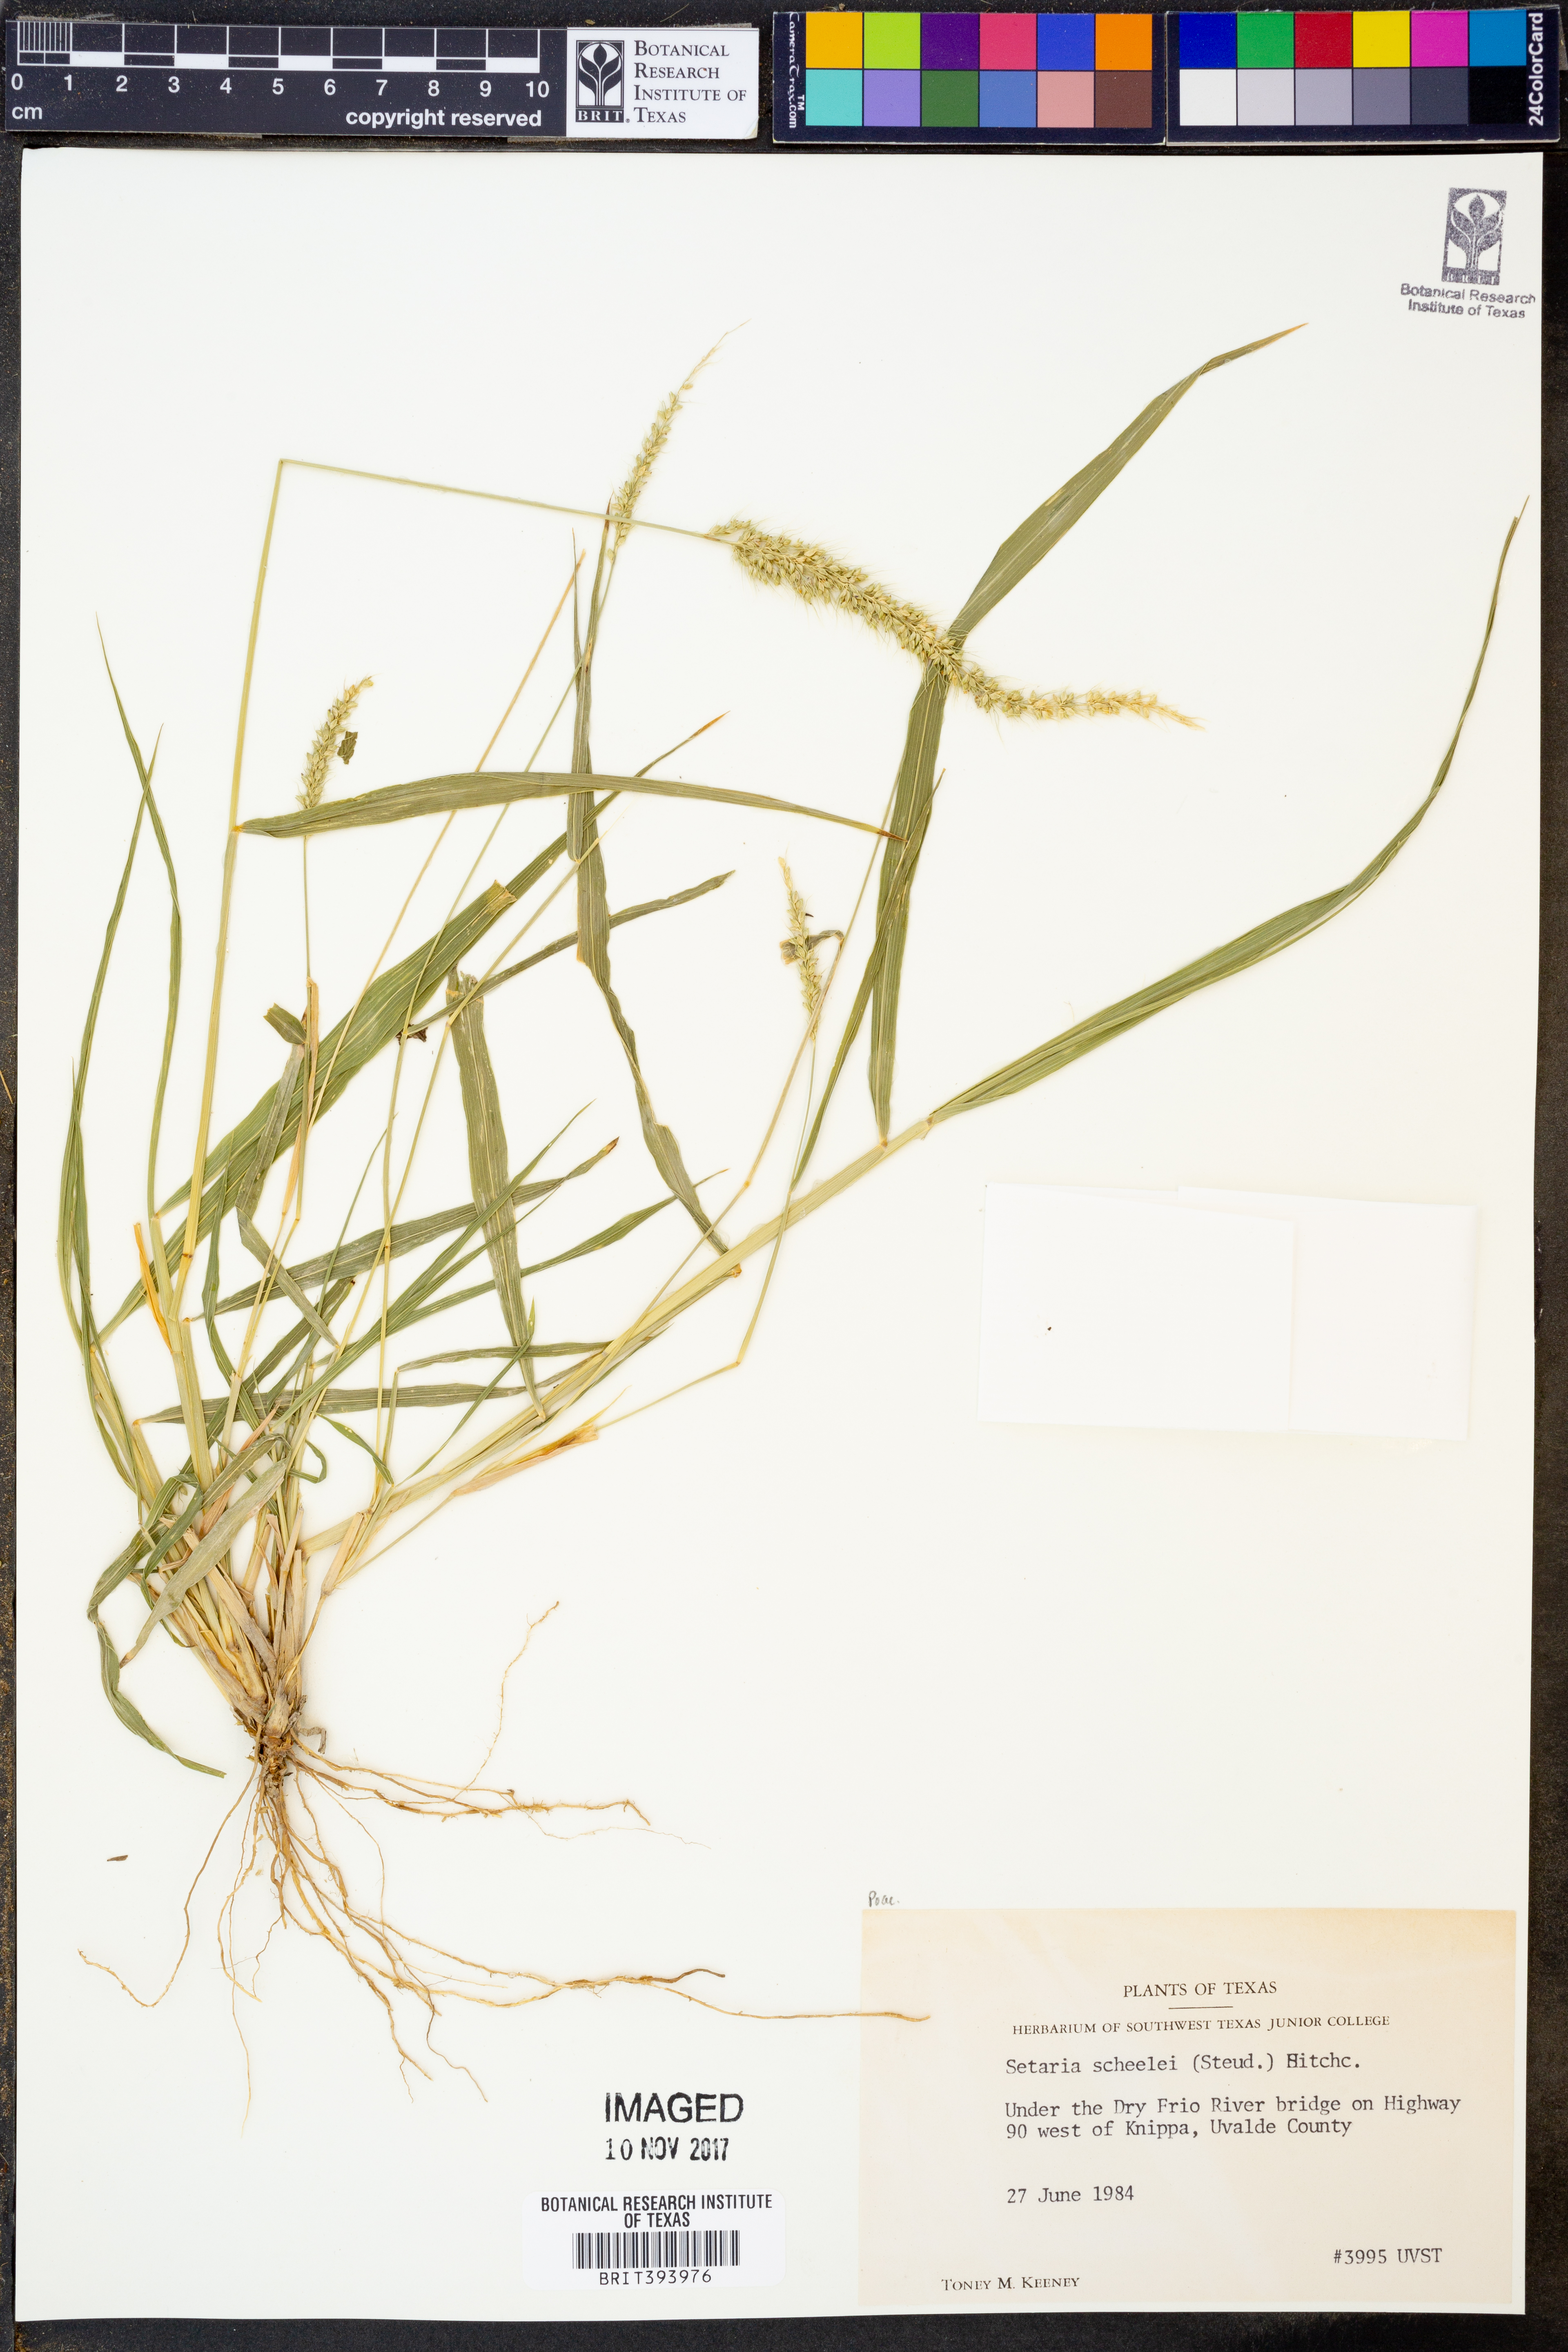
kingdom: Plantae
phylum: Tracheophyta
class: Liliopsida
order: Poales
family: Poaceae
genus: Setaria
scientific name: Setaria scheelei
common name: Southwestern bristle grass
